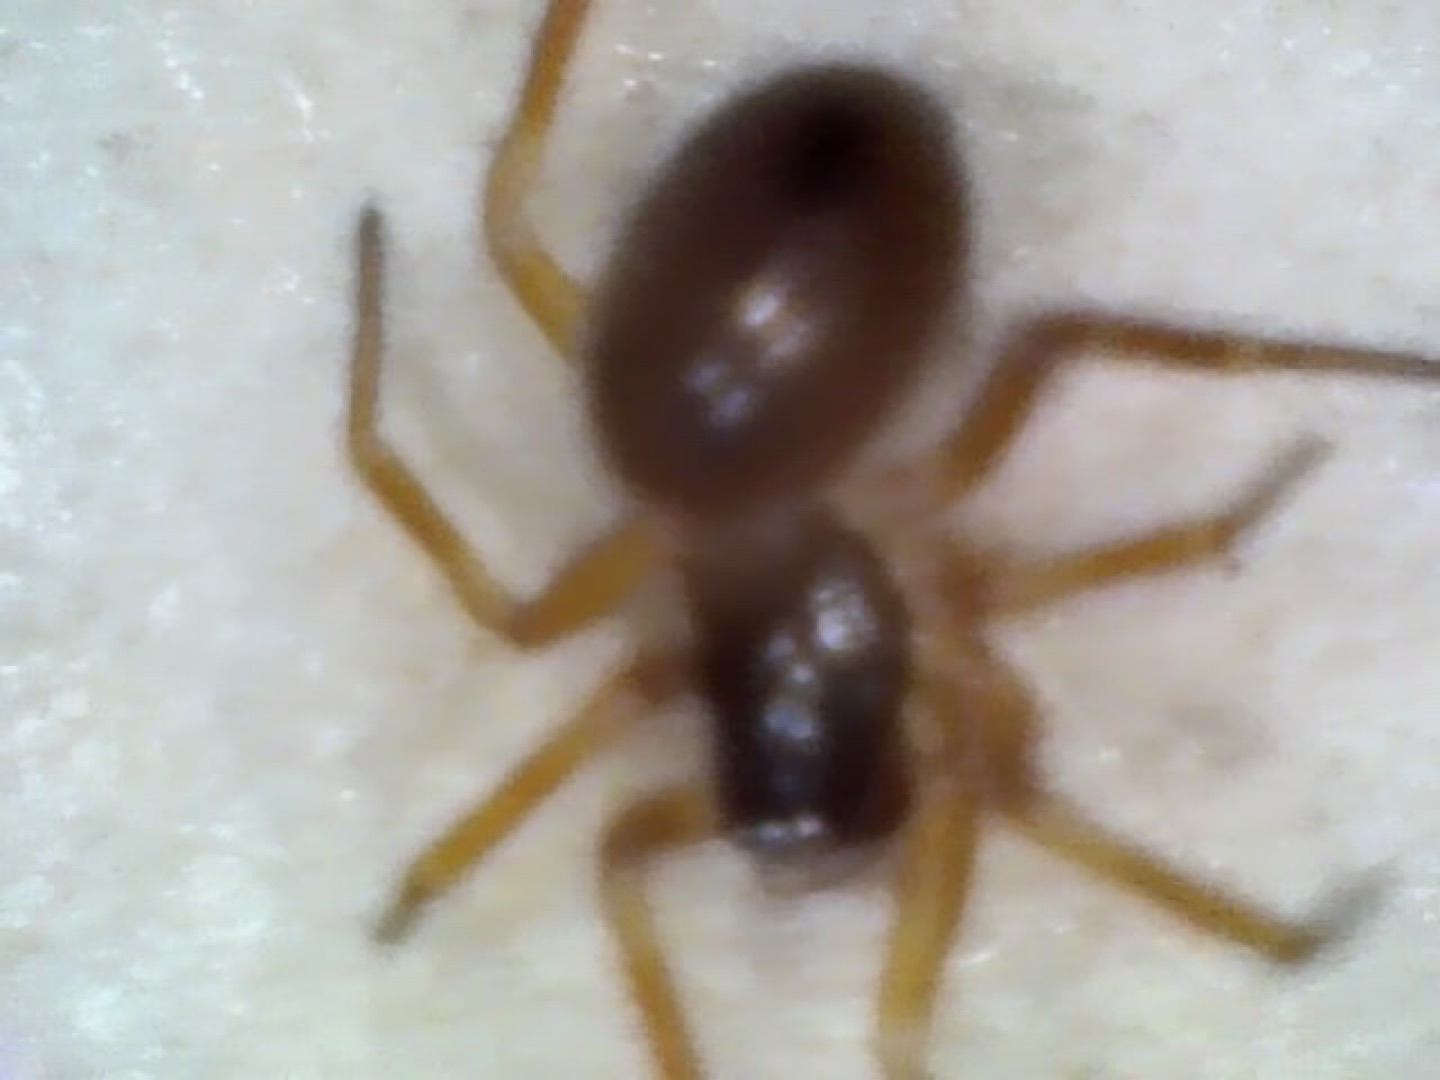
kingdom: Animalia
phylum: Arthropoda
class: Arachnida
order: Araneae
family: Linyphiidae
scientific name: Linyphiidae
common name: Tæppespindere
